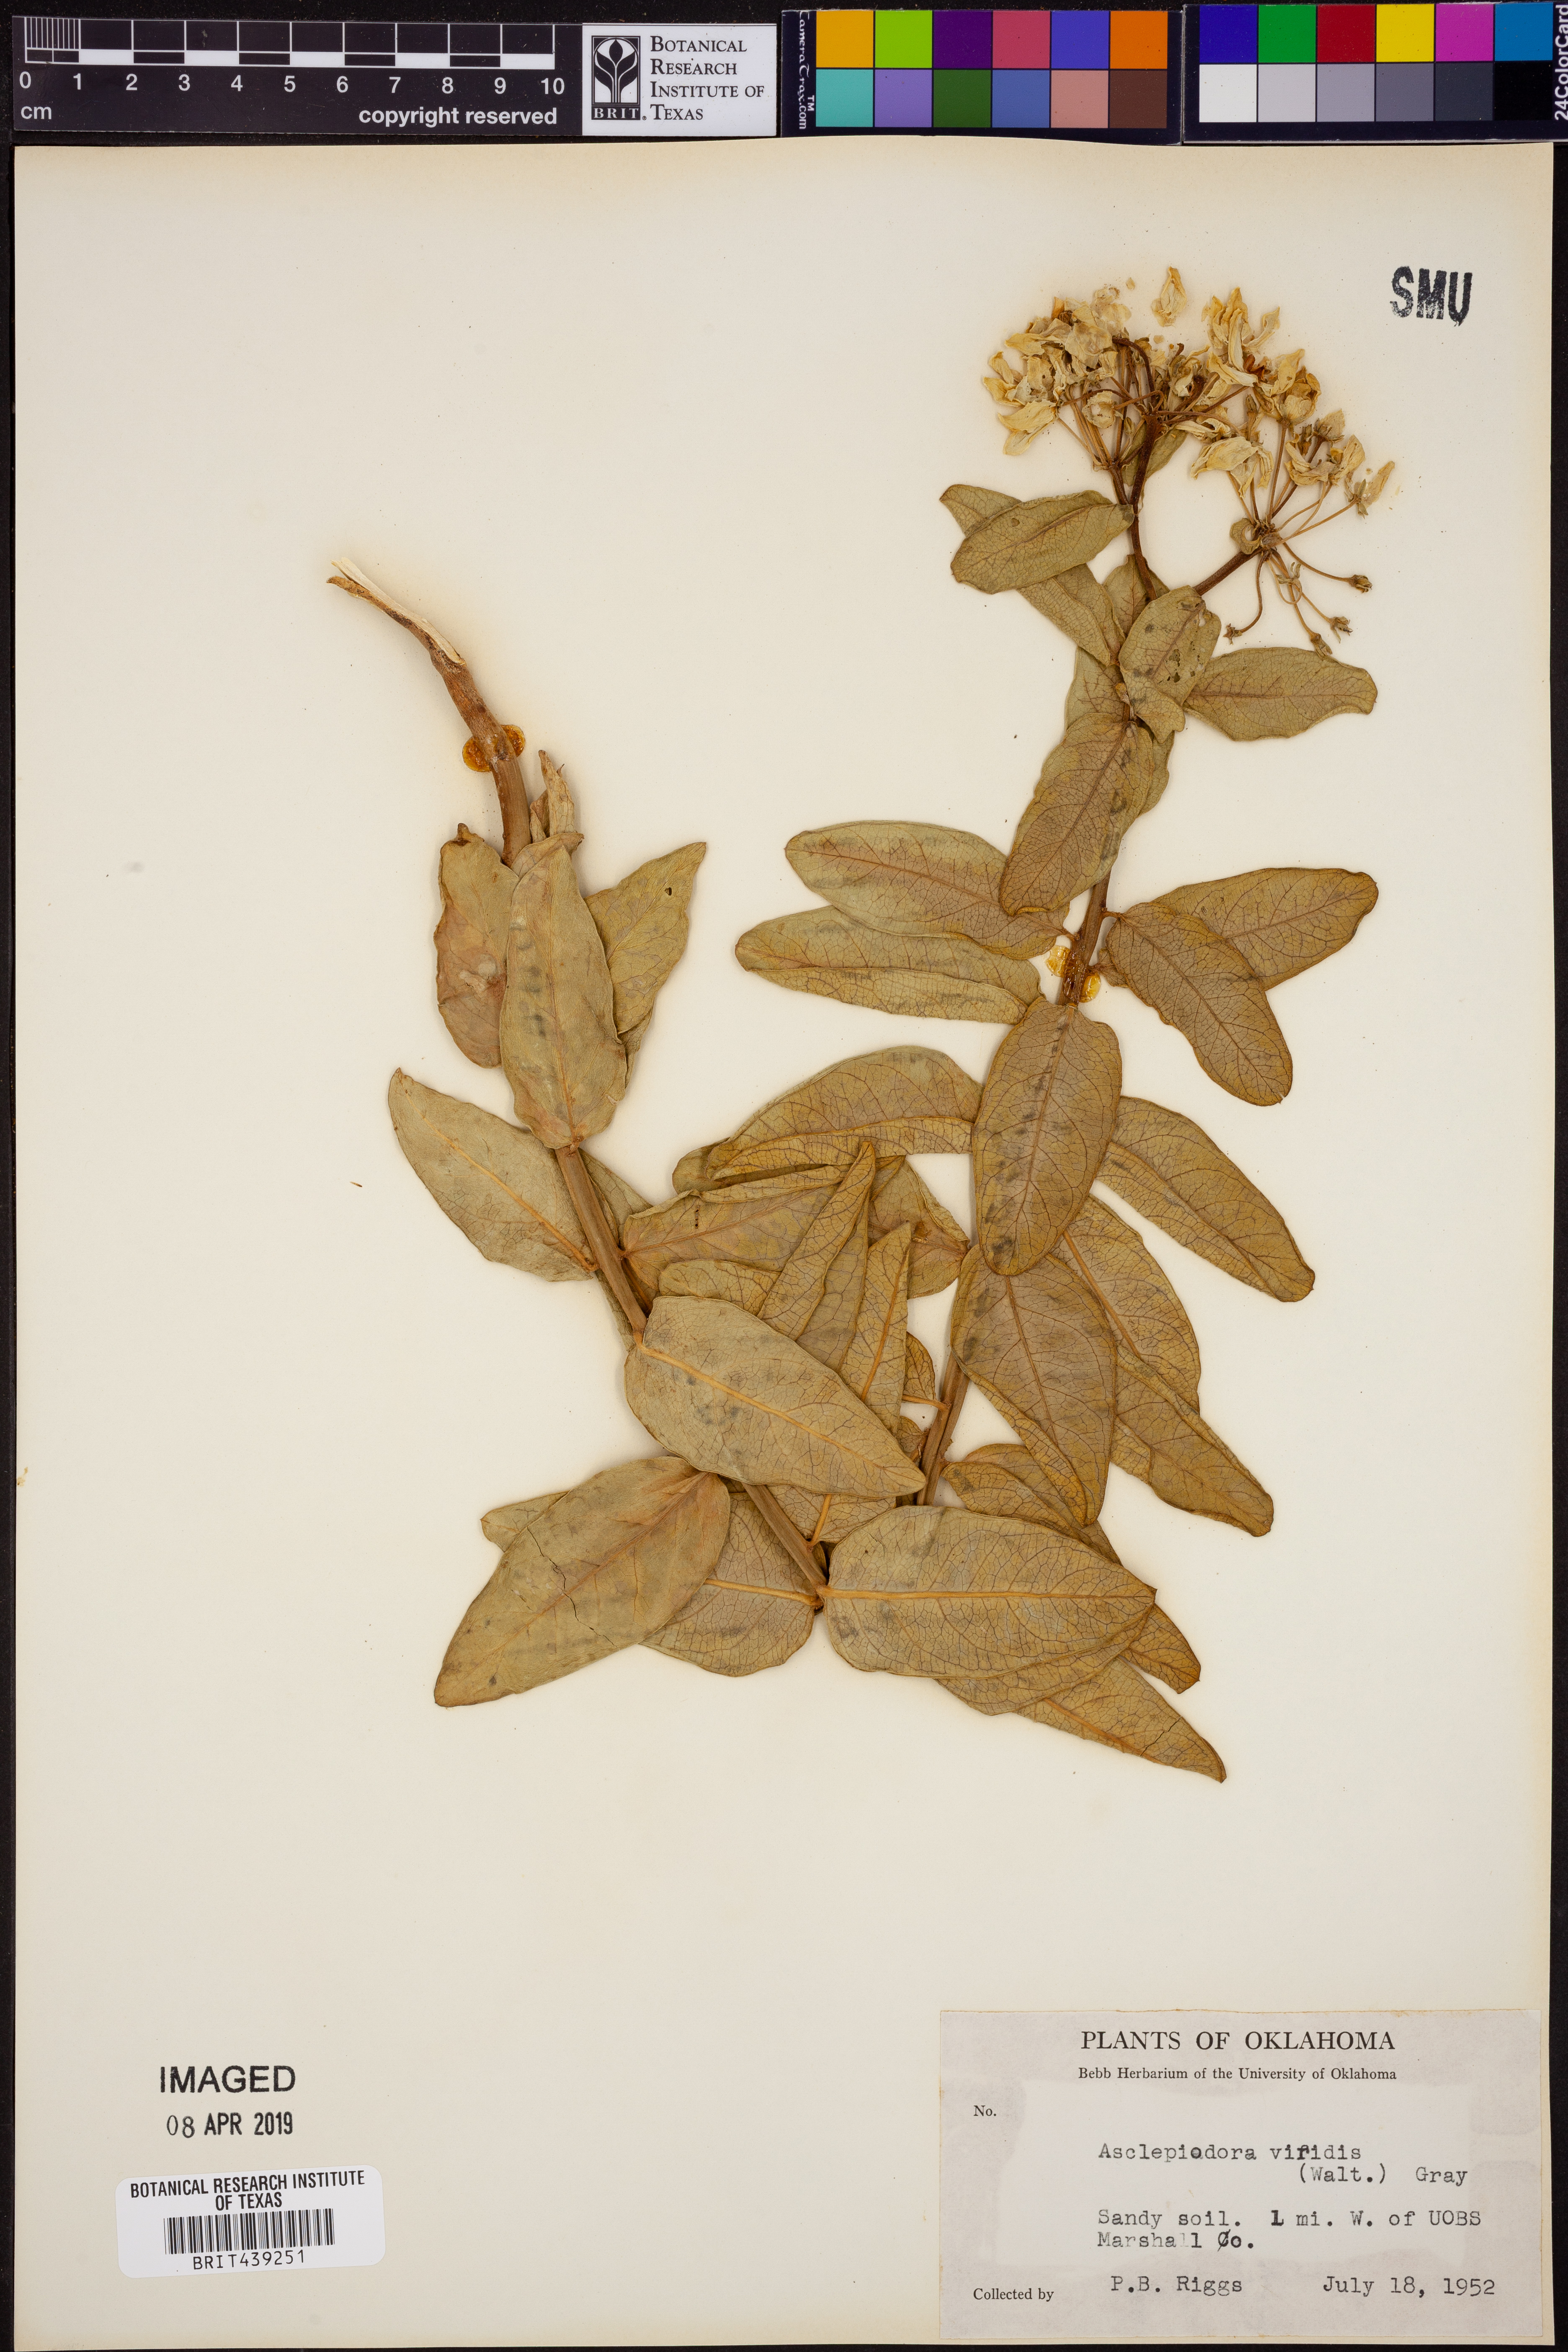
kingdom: Plantae
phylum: Tracheophyta
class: Magnoliopsida
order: Gentianales
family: Apocynaceae
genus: Asclepias
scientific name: Asclepias viridis
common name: Antelope-horns
